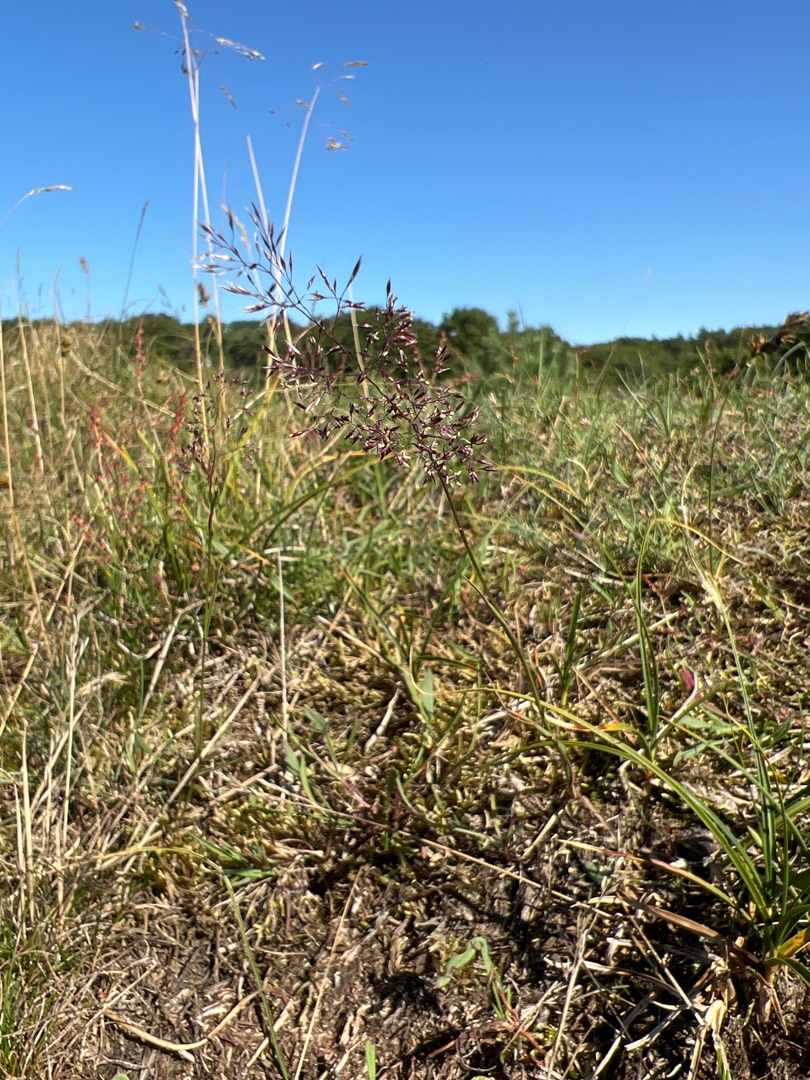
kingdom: Plantae
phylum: Tracheophyta
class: Liliopsida
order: Poales
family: Poaceae
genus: Agrostis
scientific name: Agrostis capillaris
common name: Almindelig hvene
